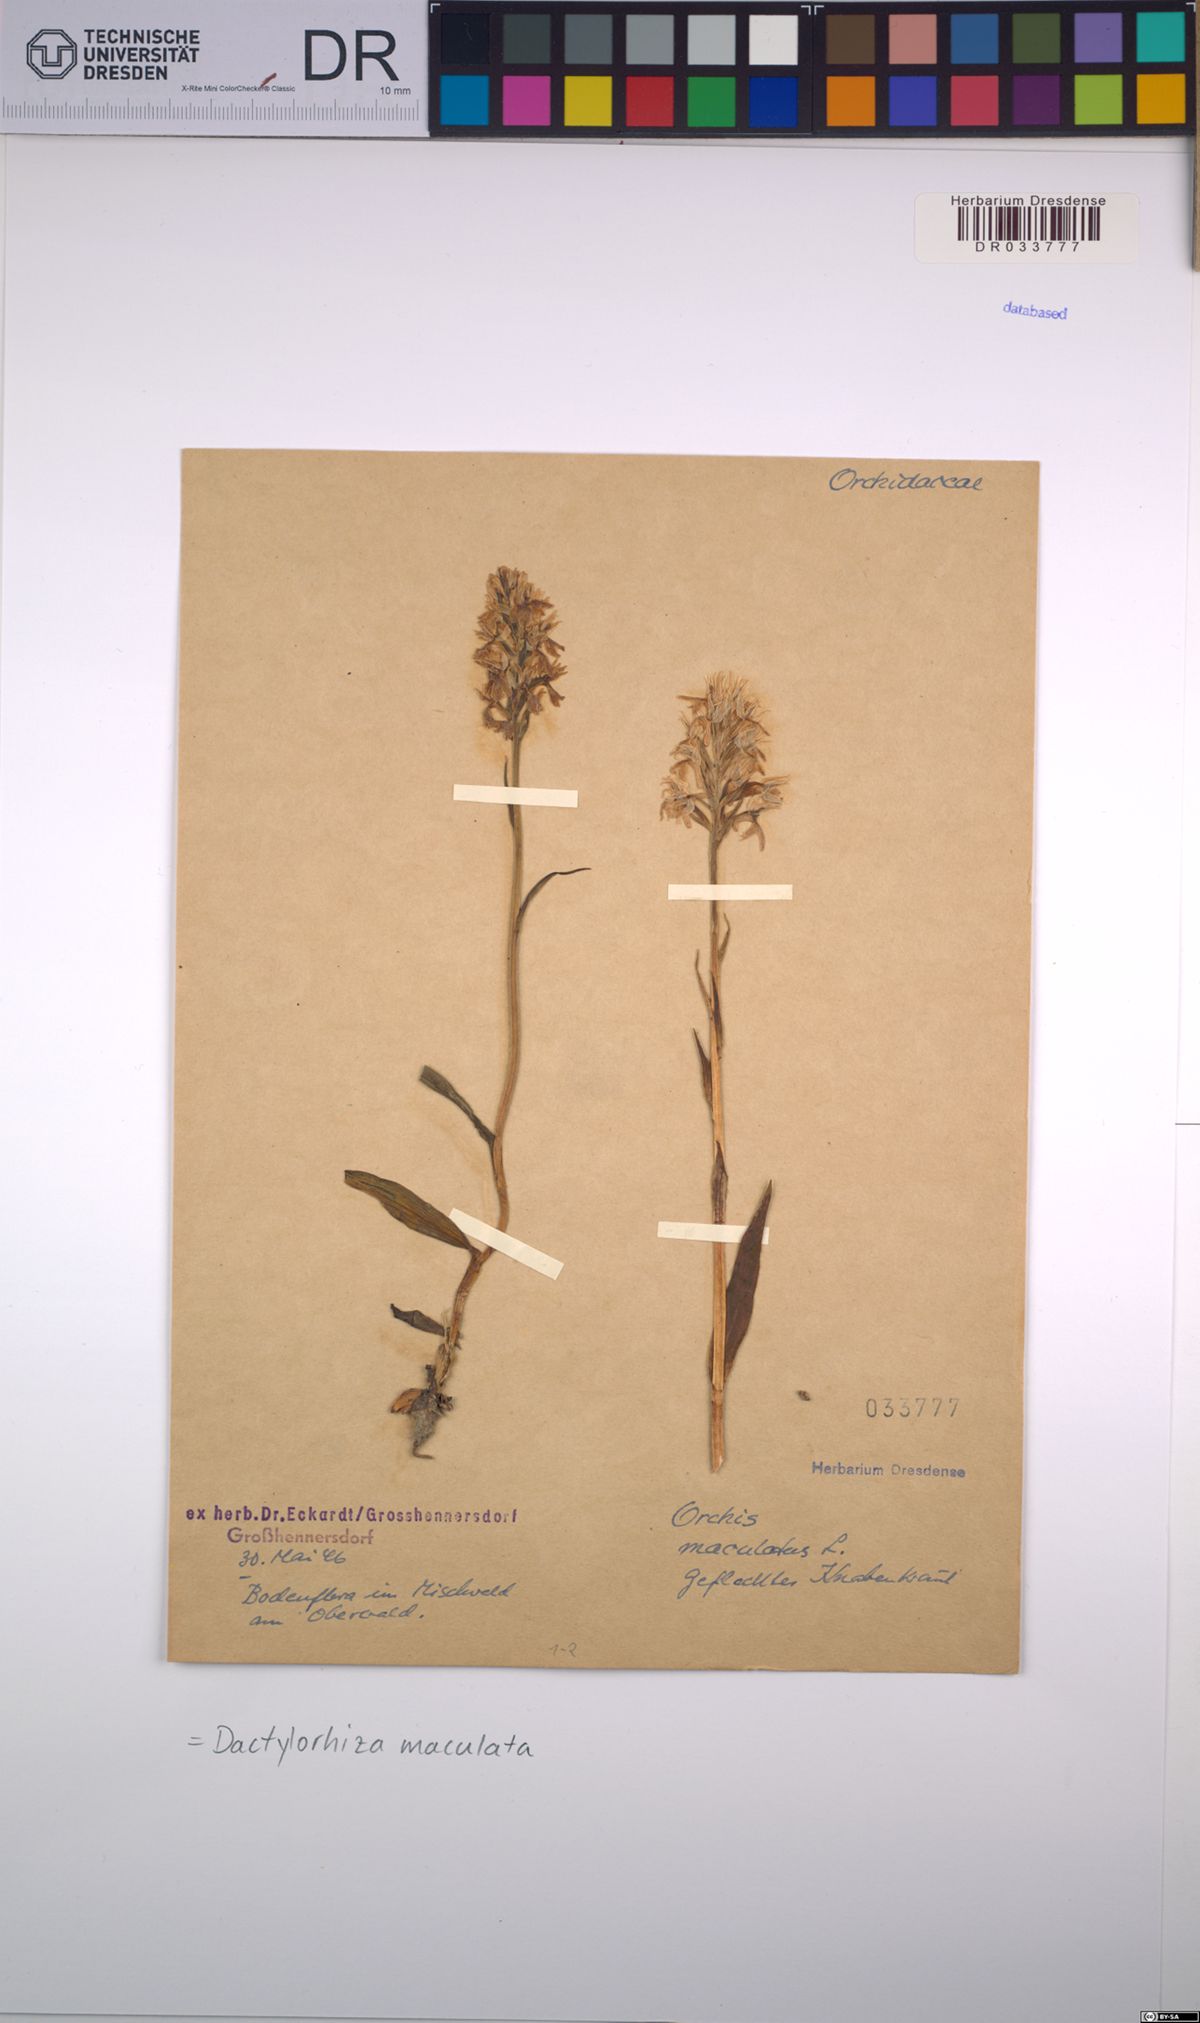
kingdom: Plantae
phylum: Tracheophyta
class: Liliopsida
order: Asparagales
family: Orchidaceae
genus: Dactylorhiza
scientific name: Dactylorhiza maculata
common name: Heath spotted-orchid
